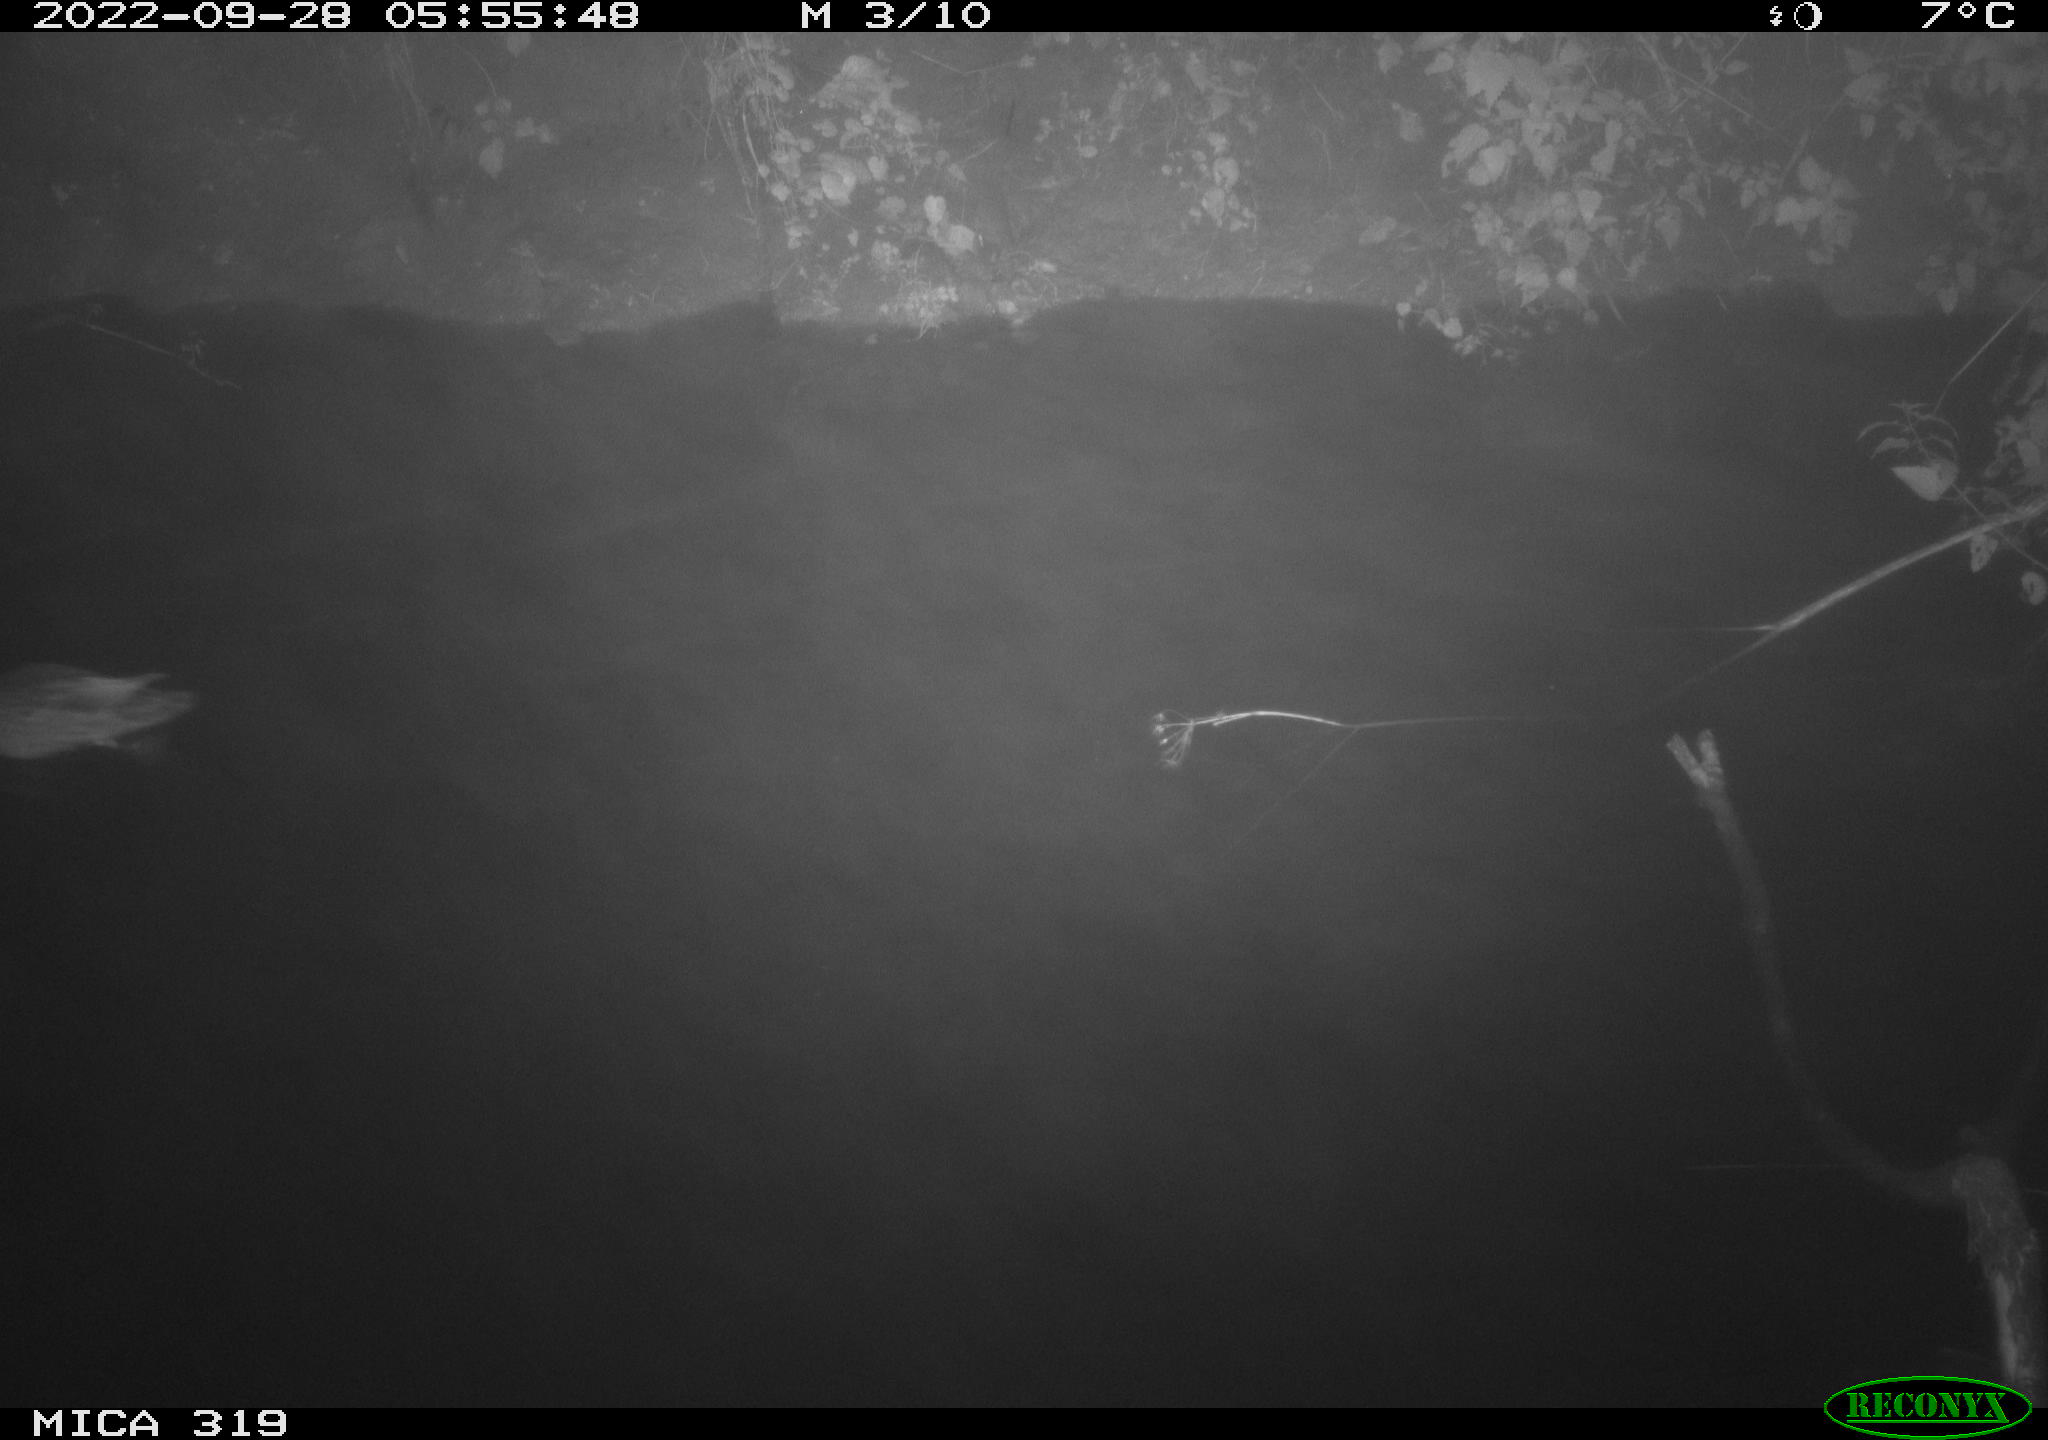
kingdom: Animalia
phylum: Chordata
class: Aves
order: Anseriformes
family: Anatidae
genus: Anas
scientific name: Anas
